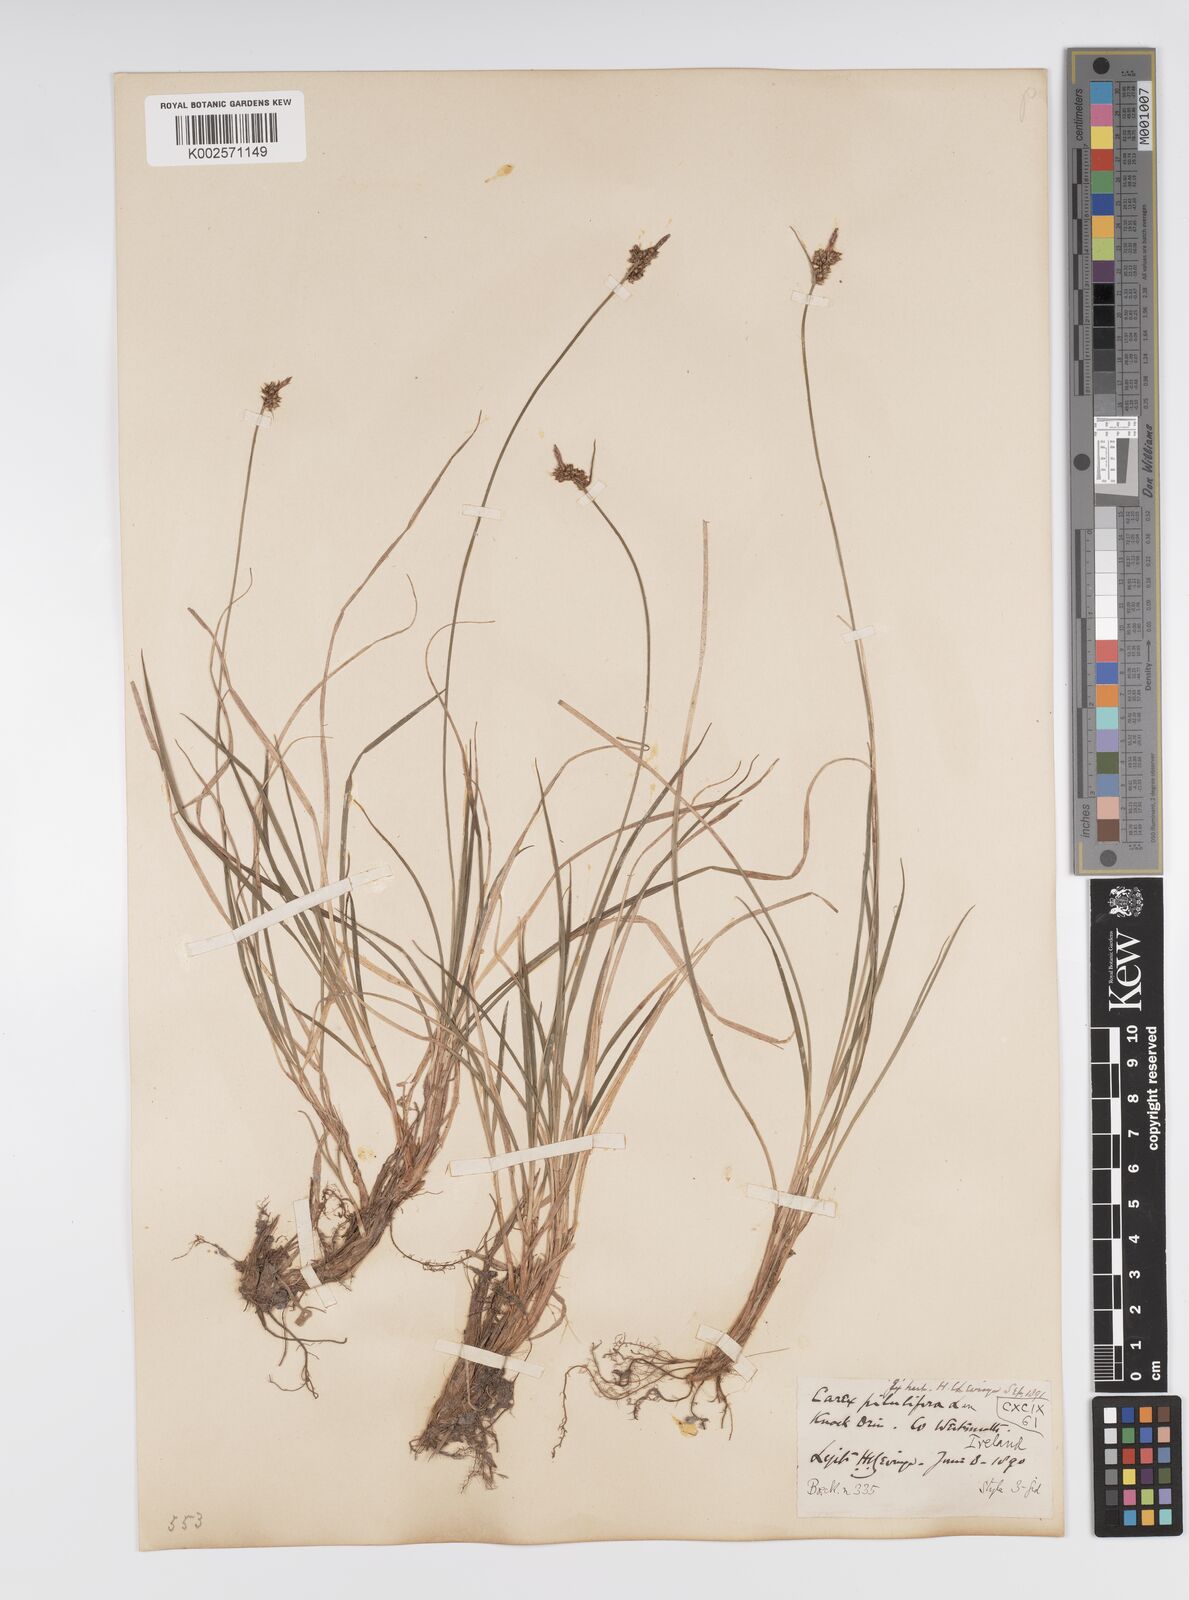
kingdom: Plantae
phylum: Tracheophyta
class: Liliopsida
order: Poales
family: Cyperaceae
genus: Carex
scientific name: Carex pilulifera
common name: Pill sedge
